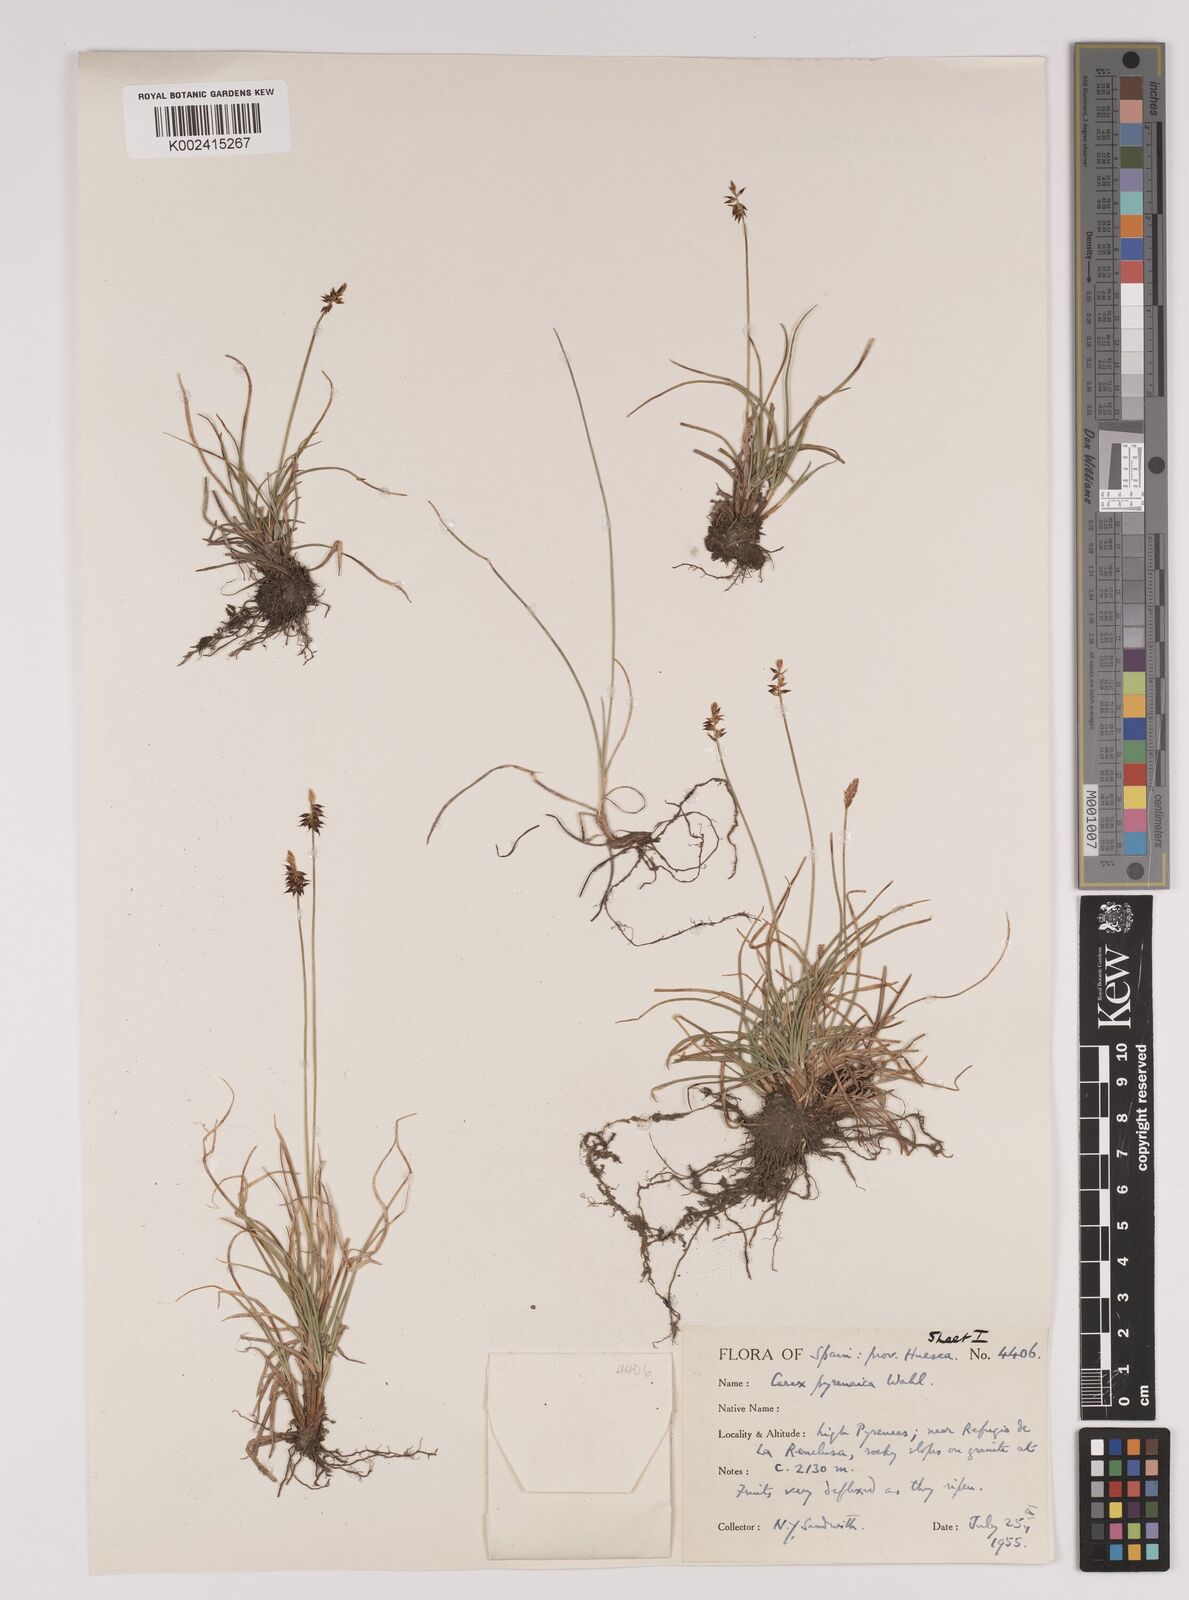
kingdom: Plantae
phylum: Tracheophyta
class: Liliopsida
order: Poales
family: Cyperaceae
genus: Carex
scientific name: Carex pyrenaica
